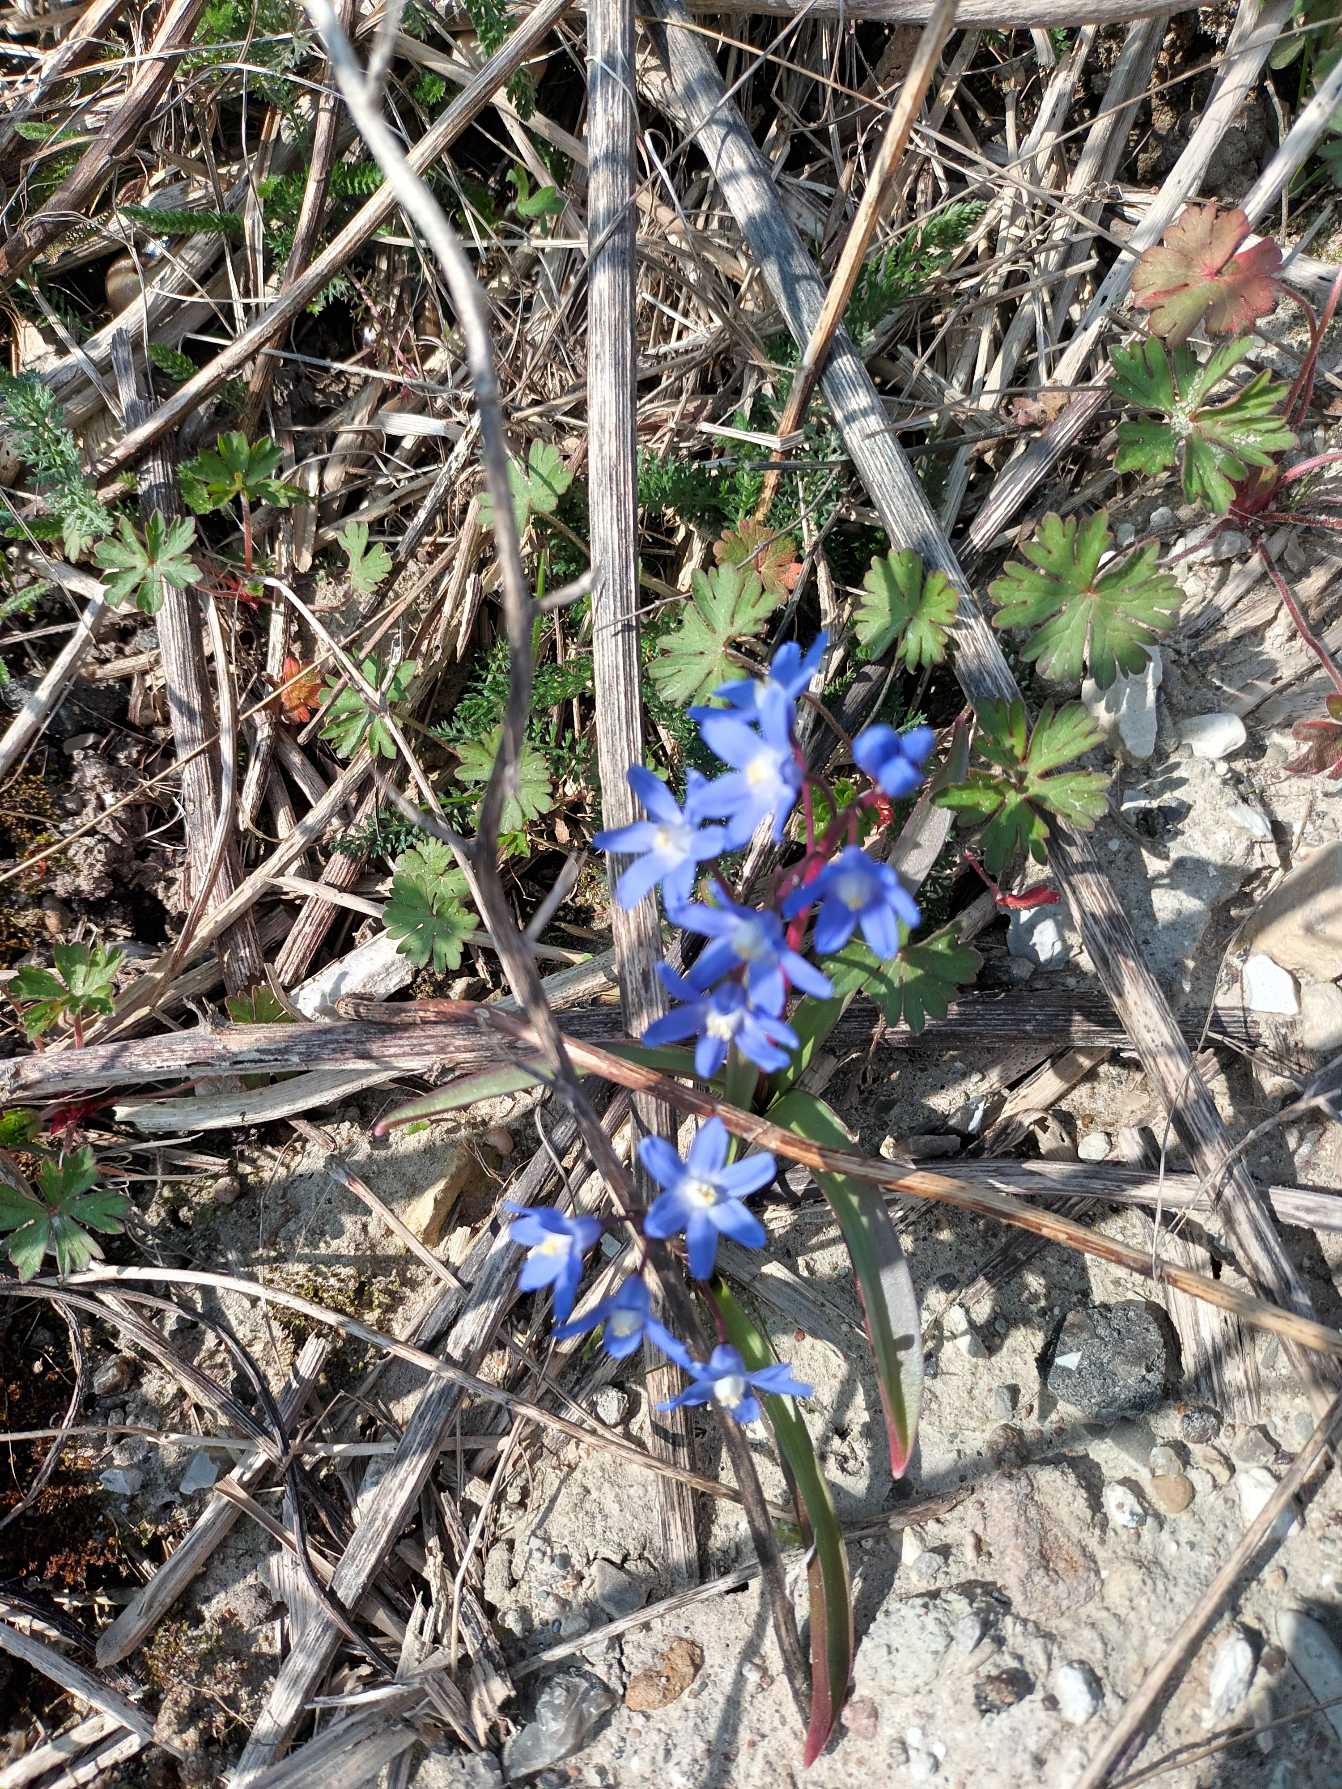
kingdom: Plantae
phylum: Tracheophyta
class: Liliopsida
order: Asparagales
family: Asparagaceae
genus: Scilla
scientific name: Scilla sardensis
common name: Liden snepryd
